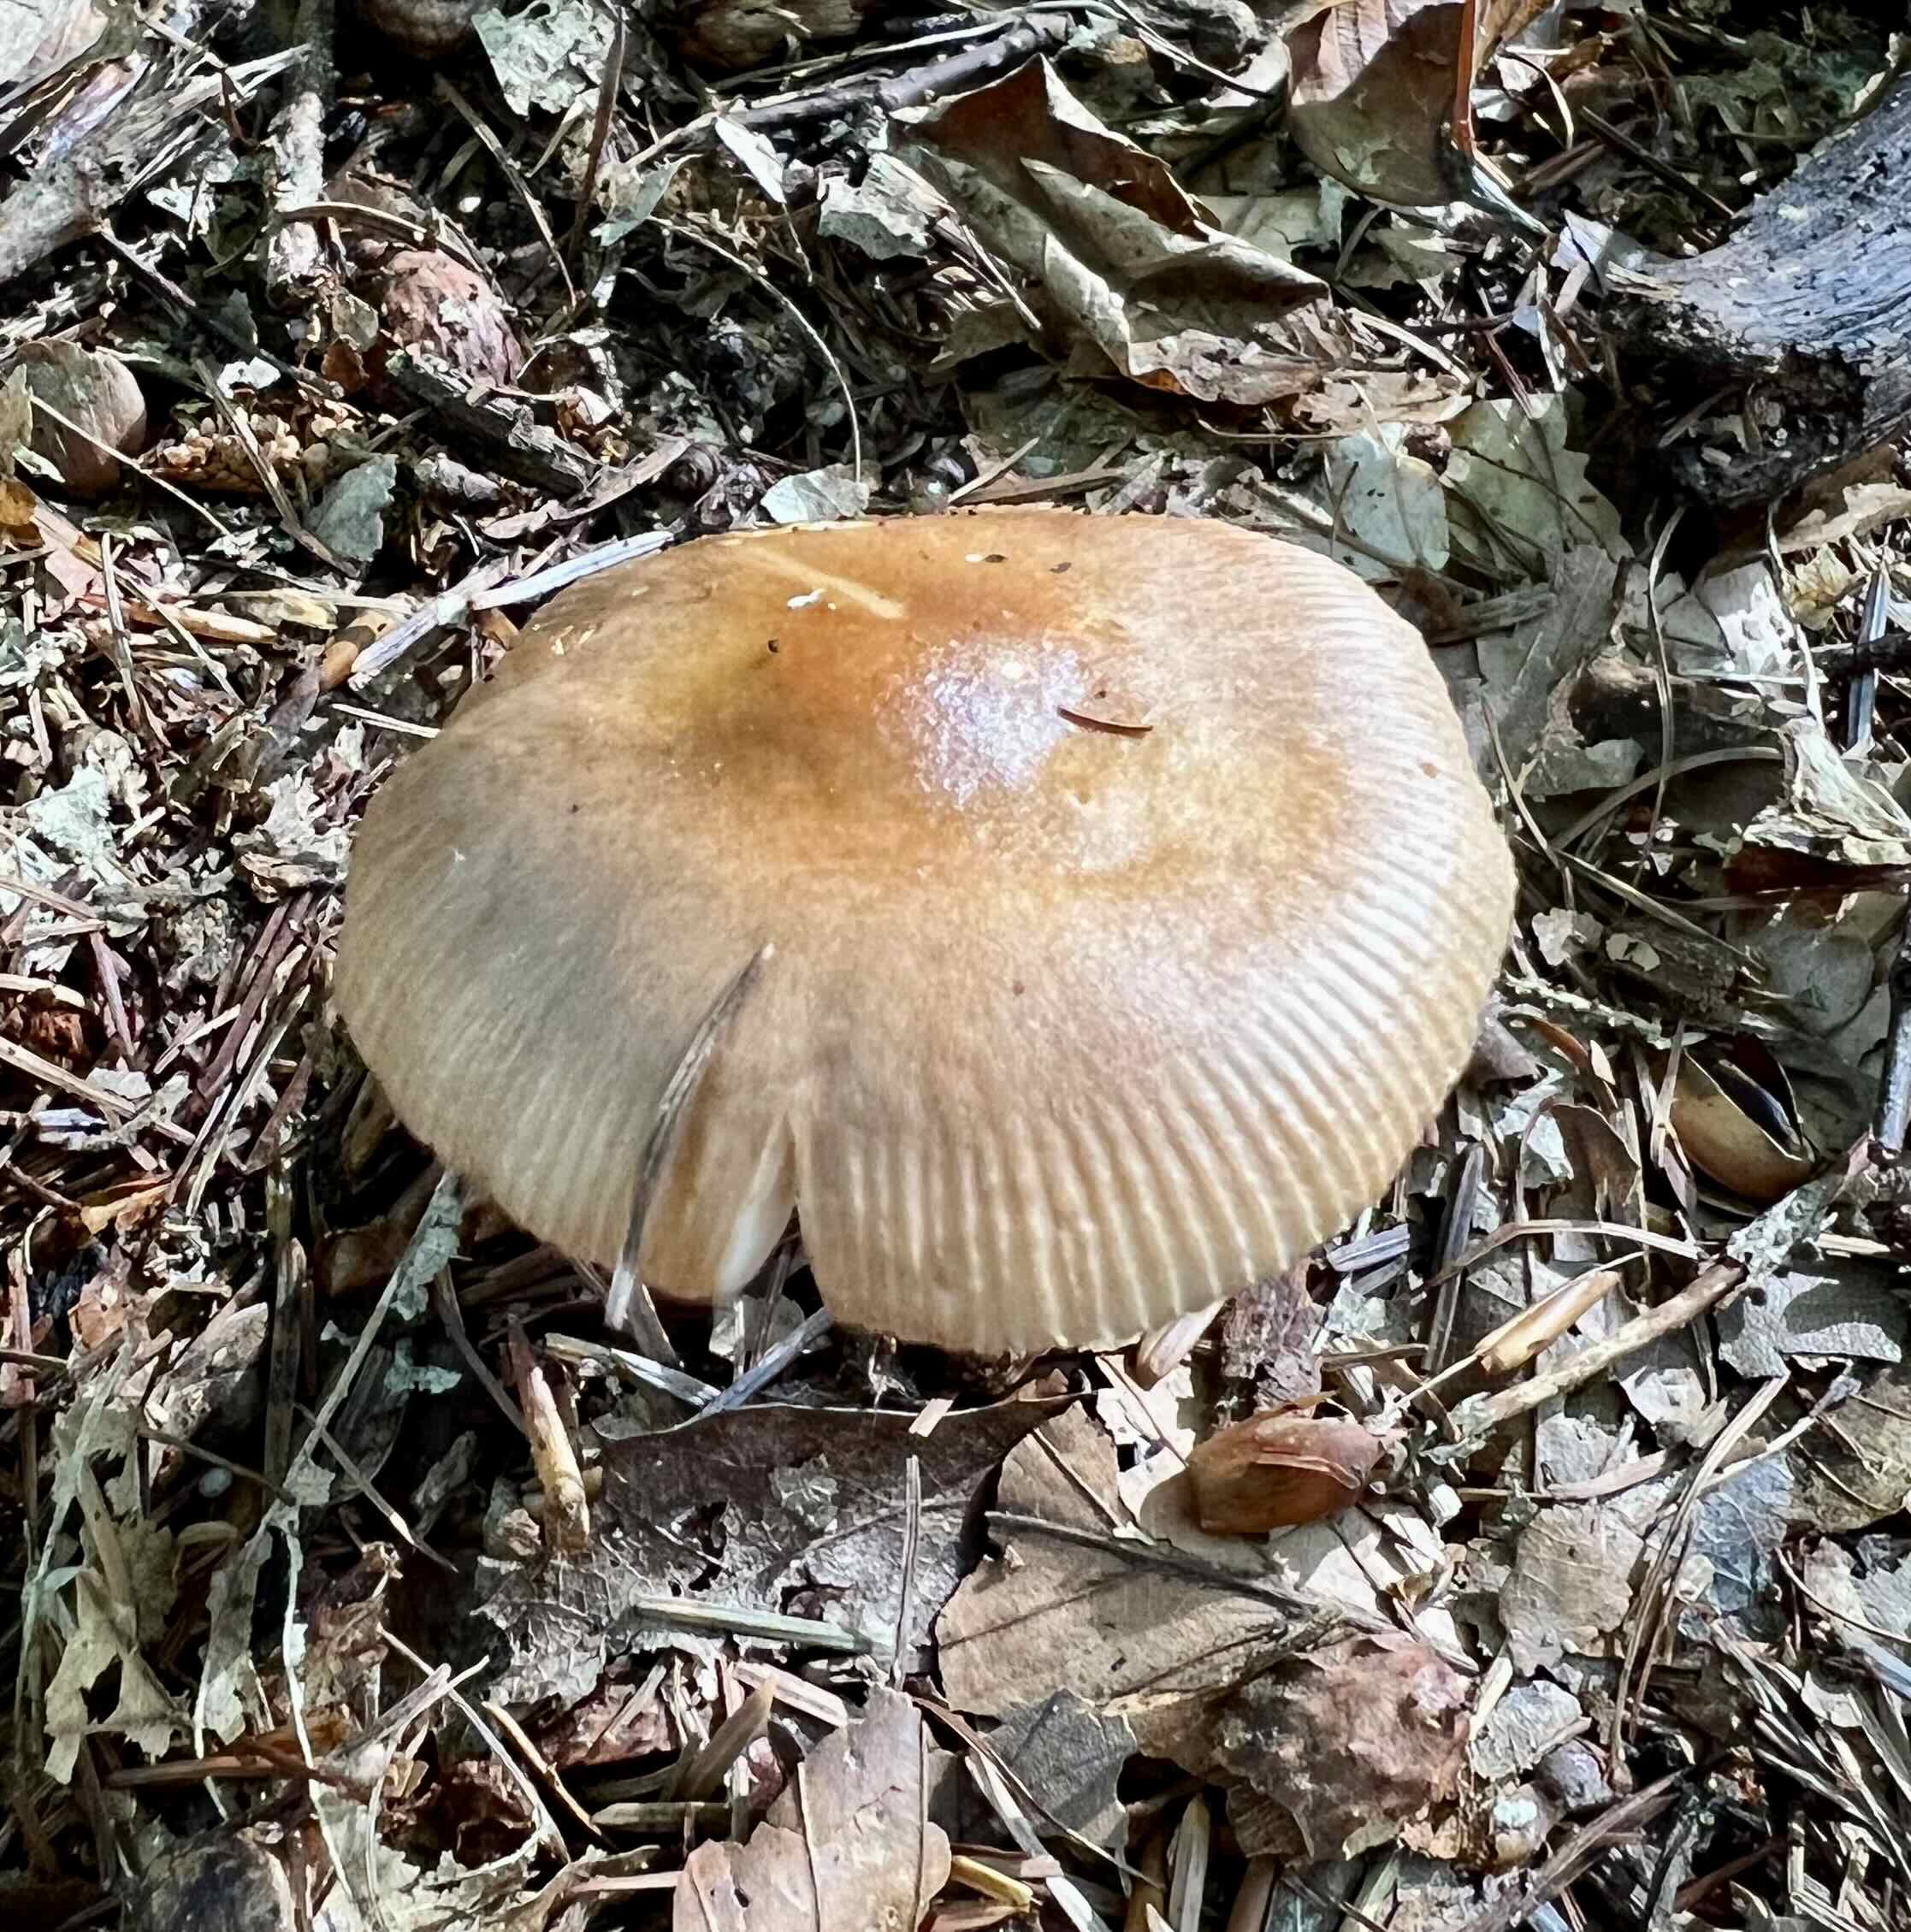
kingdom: Fungi
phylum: Basidiomycota
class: Agaricomycetes
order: Agaricales
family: Amanitaceae
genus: Amanita
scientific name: Amanita fulva
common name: brun kam-fluesvamp
